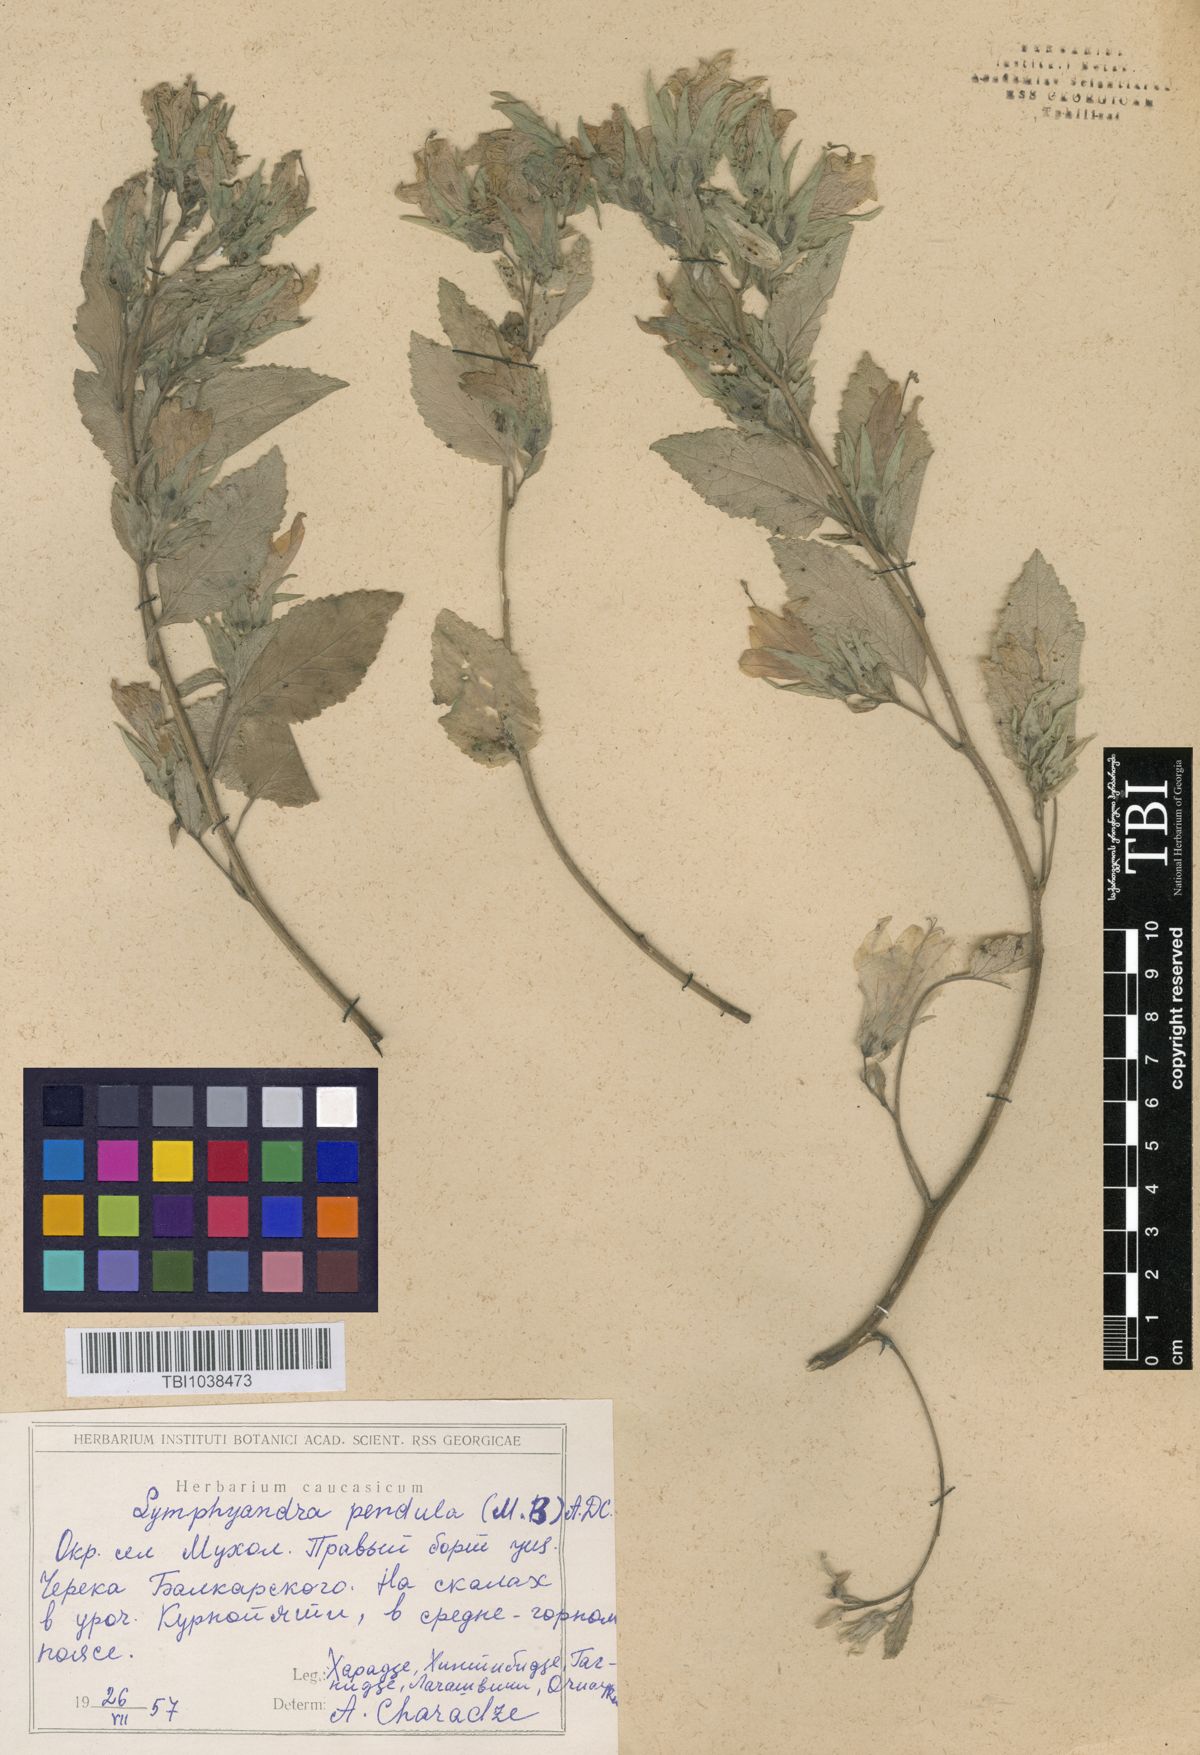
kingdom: Plantae
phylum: Tracheophyta
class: Magnoliopsida
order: Asterales
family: Campanulaceae
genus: Campanula
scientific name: Campanula pendula
